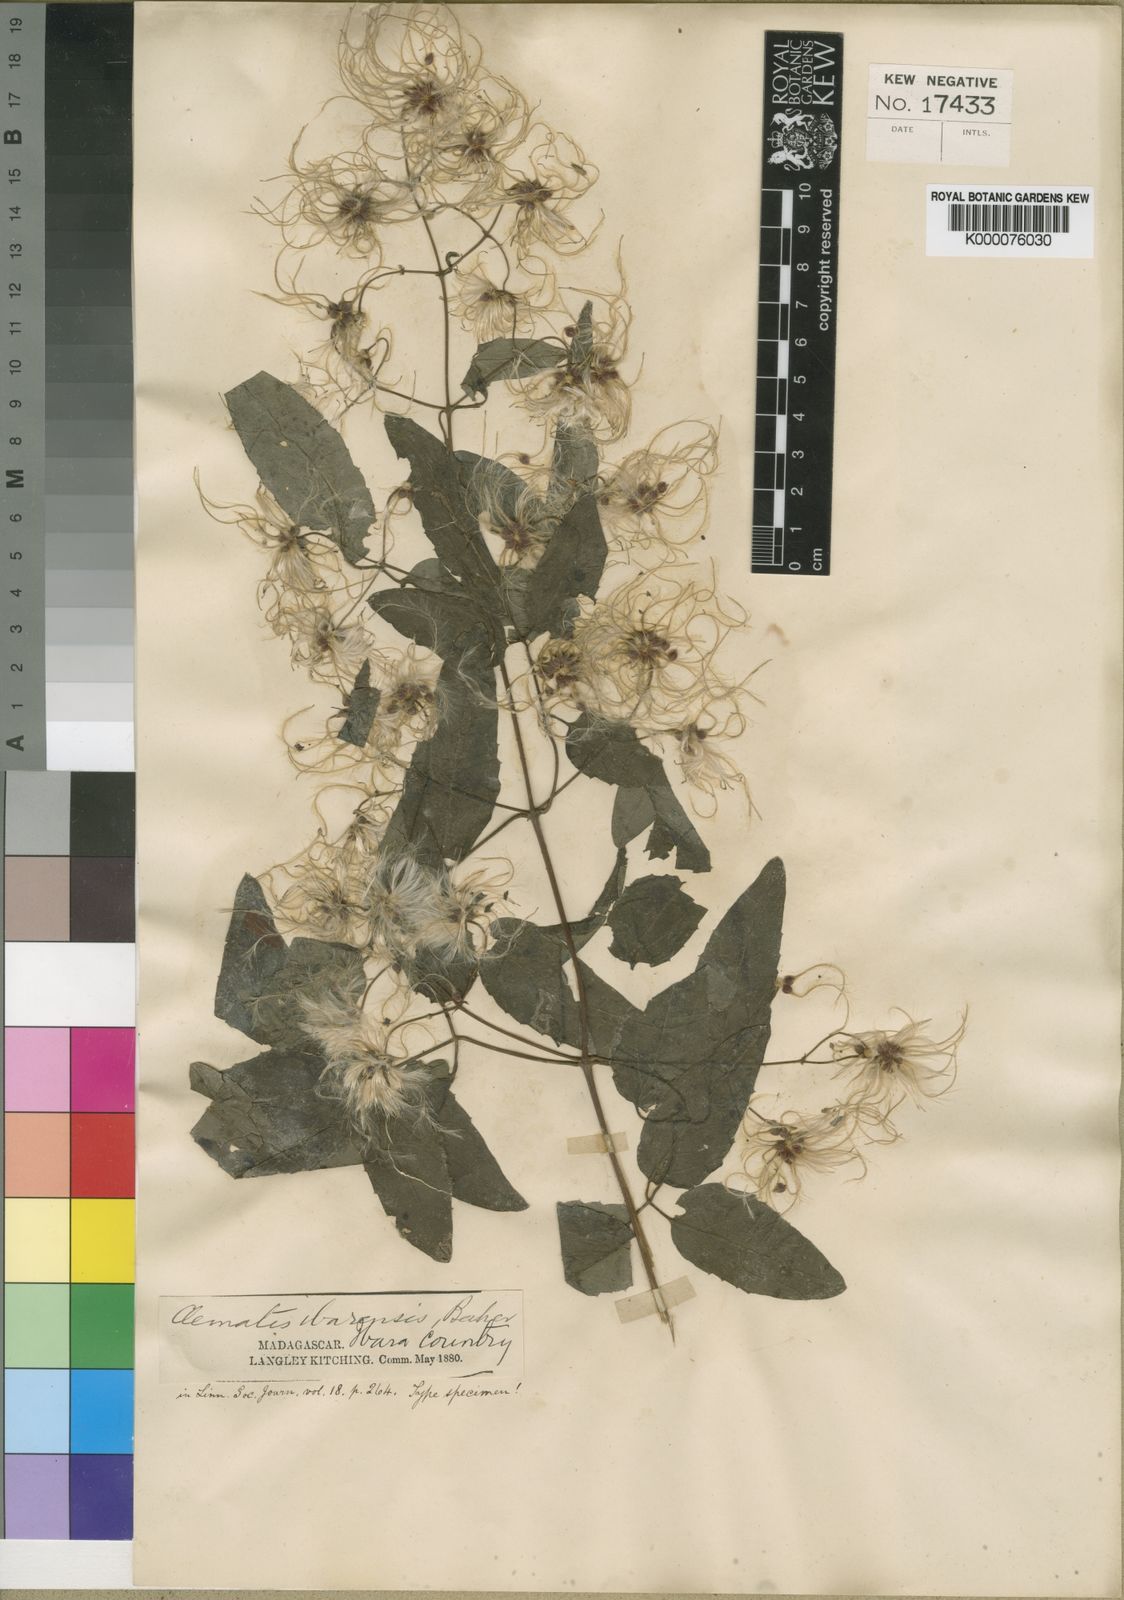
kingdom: Plantae
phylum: Tracheophyta
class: Magnoliopsida
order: Ranunculales
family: Ranunculaceae
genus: Clematis
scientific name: Clematis ibarensis
